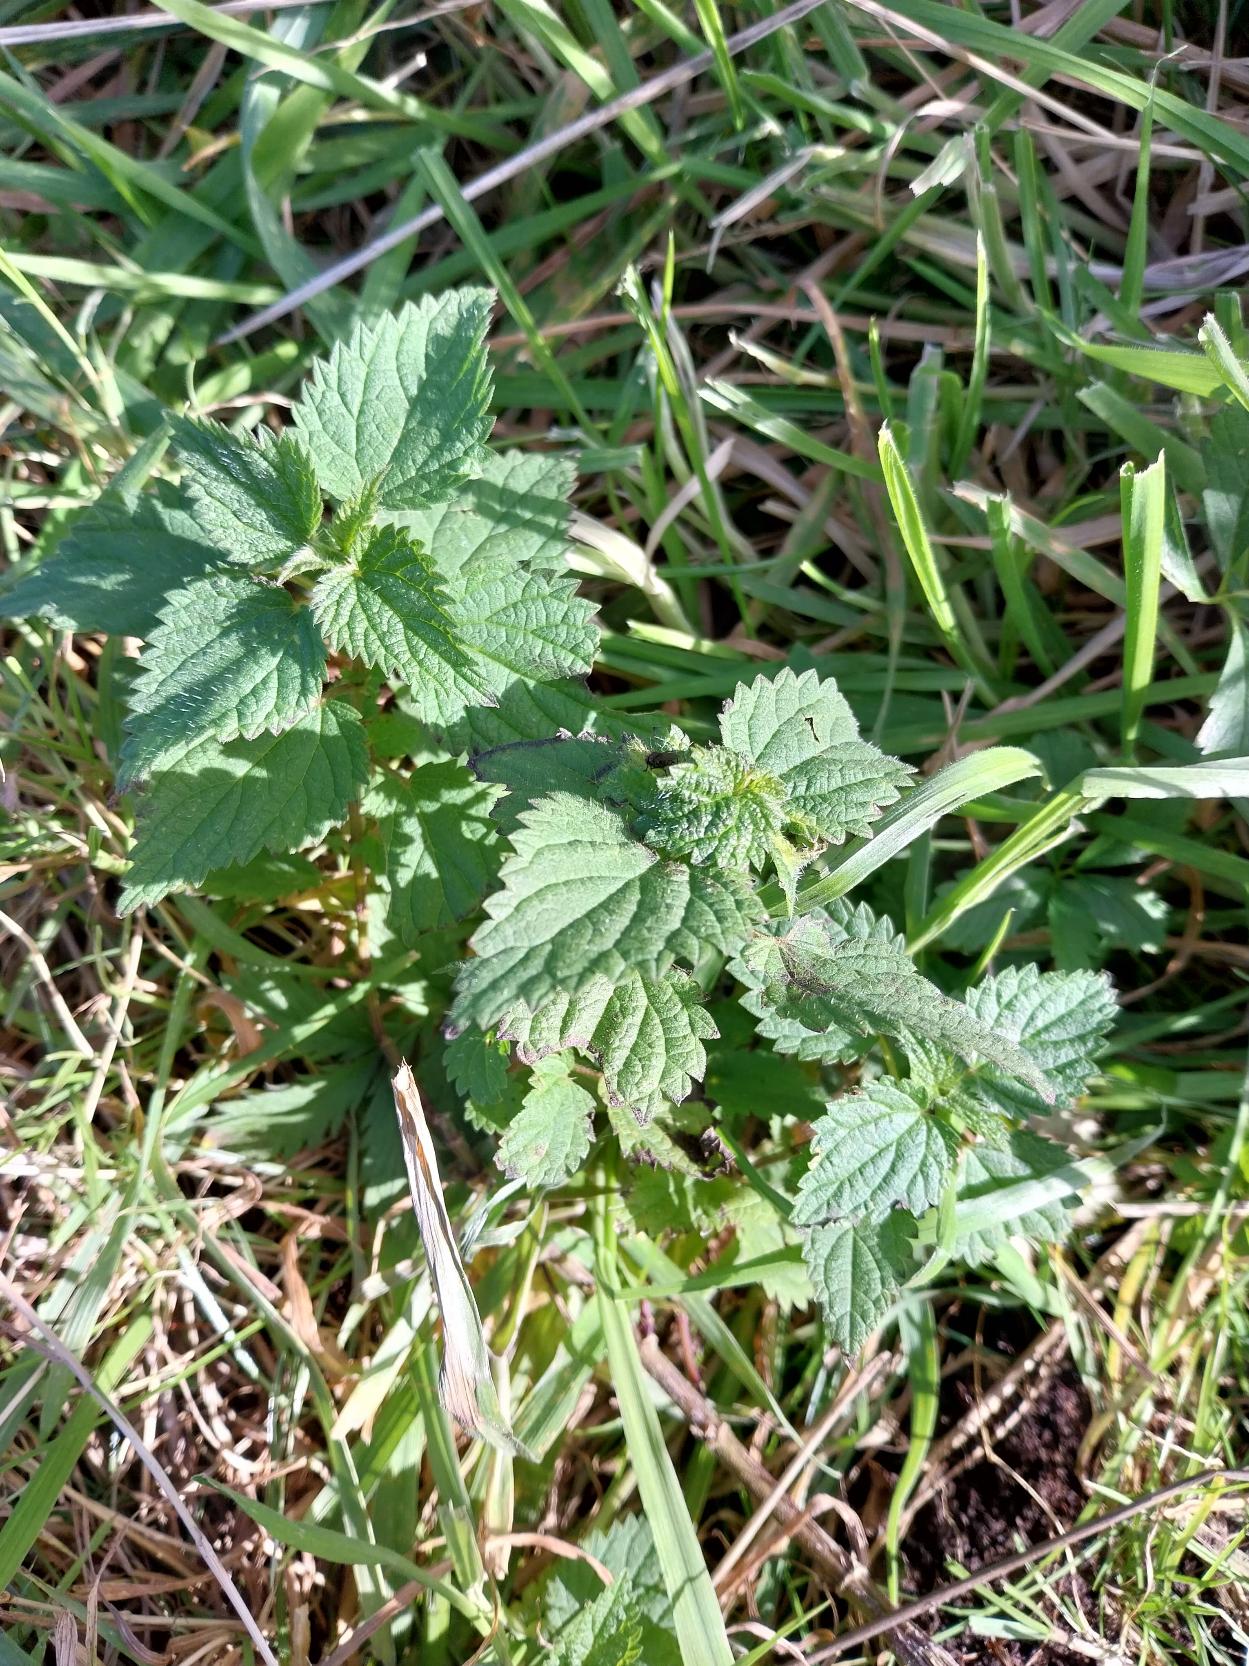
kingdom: Plantae
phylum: Tracheophyta
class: Magnoliopsida
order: Rosales
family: Urticaceae
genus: Urtica
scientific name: Urtica dioica
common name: Stor nælde
